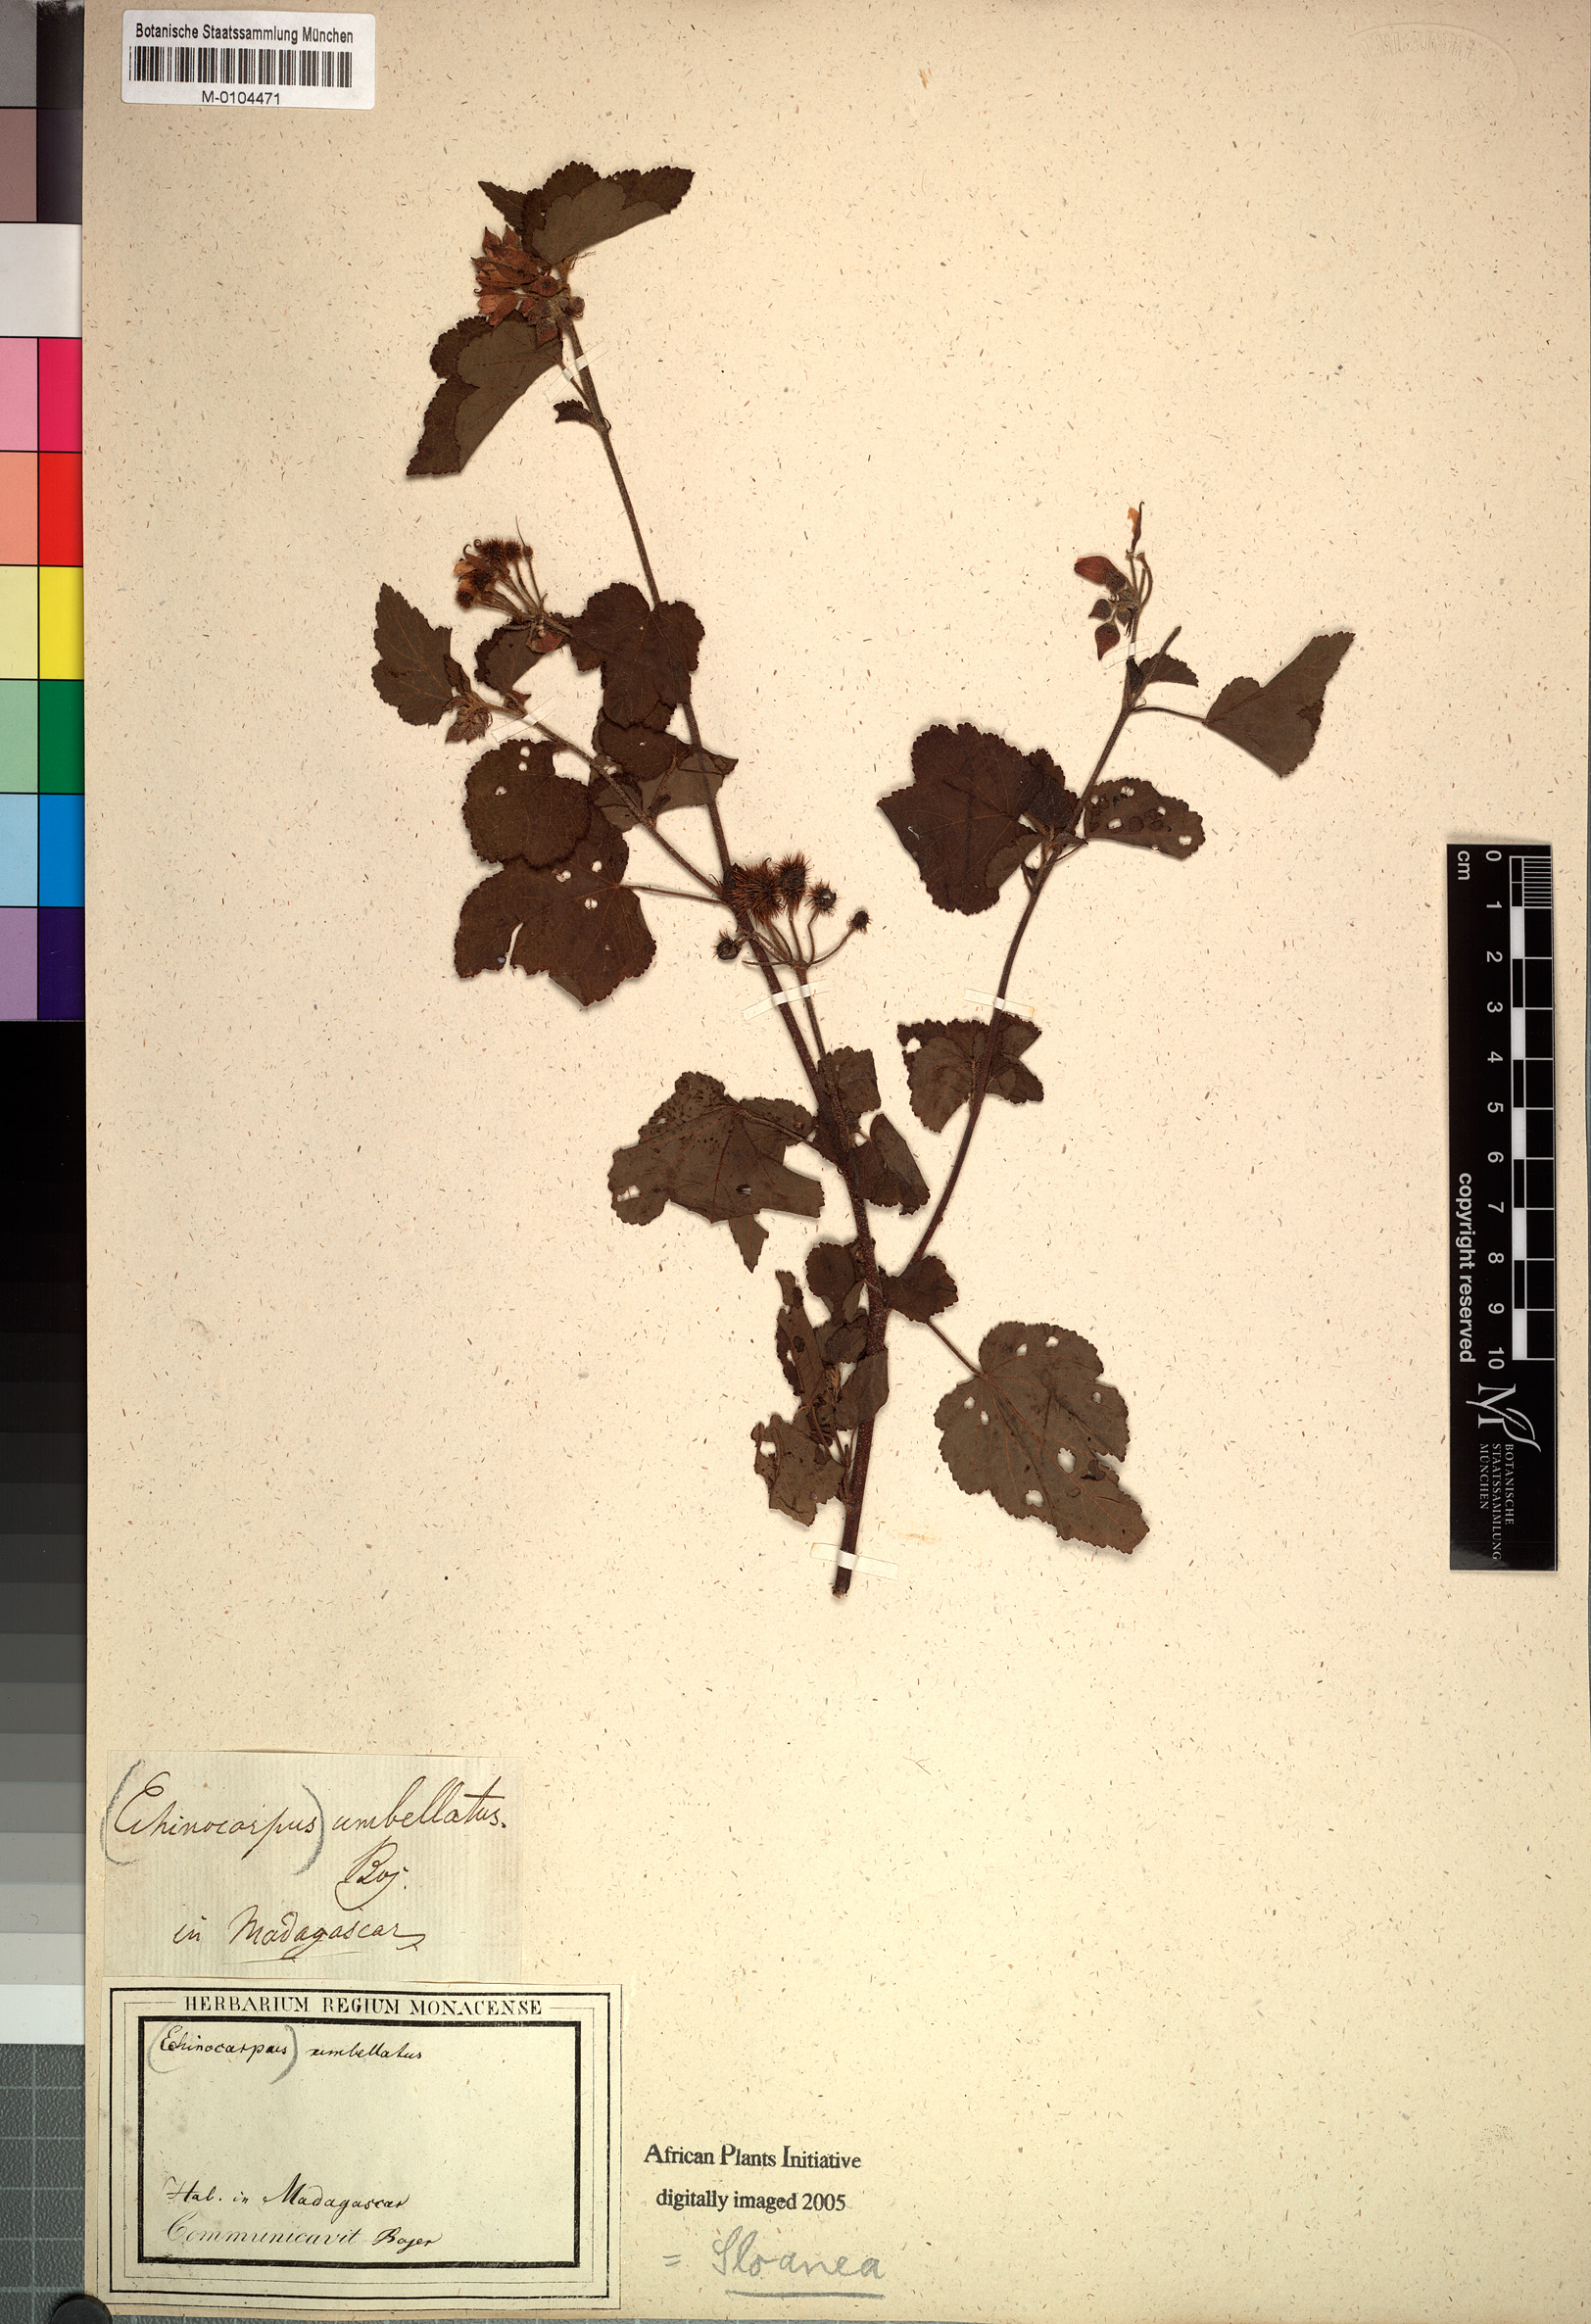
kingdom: Plantae
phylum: Tracheophyta
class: Magnoliopsida
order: Oxalidales
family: Elaeocarpaceae
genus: Sloanea
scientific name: Sloanea
